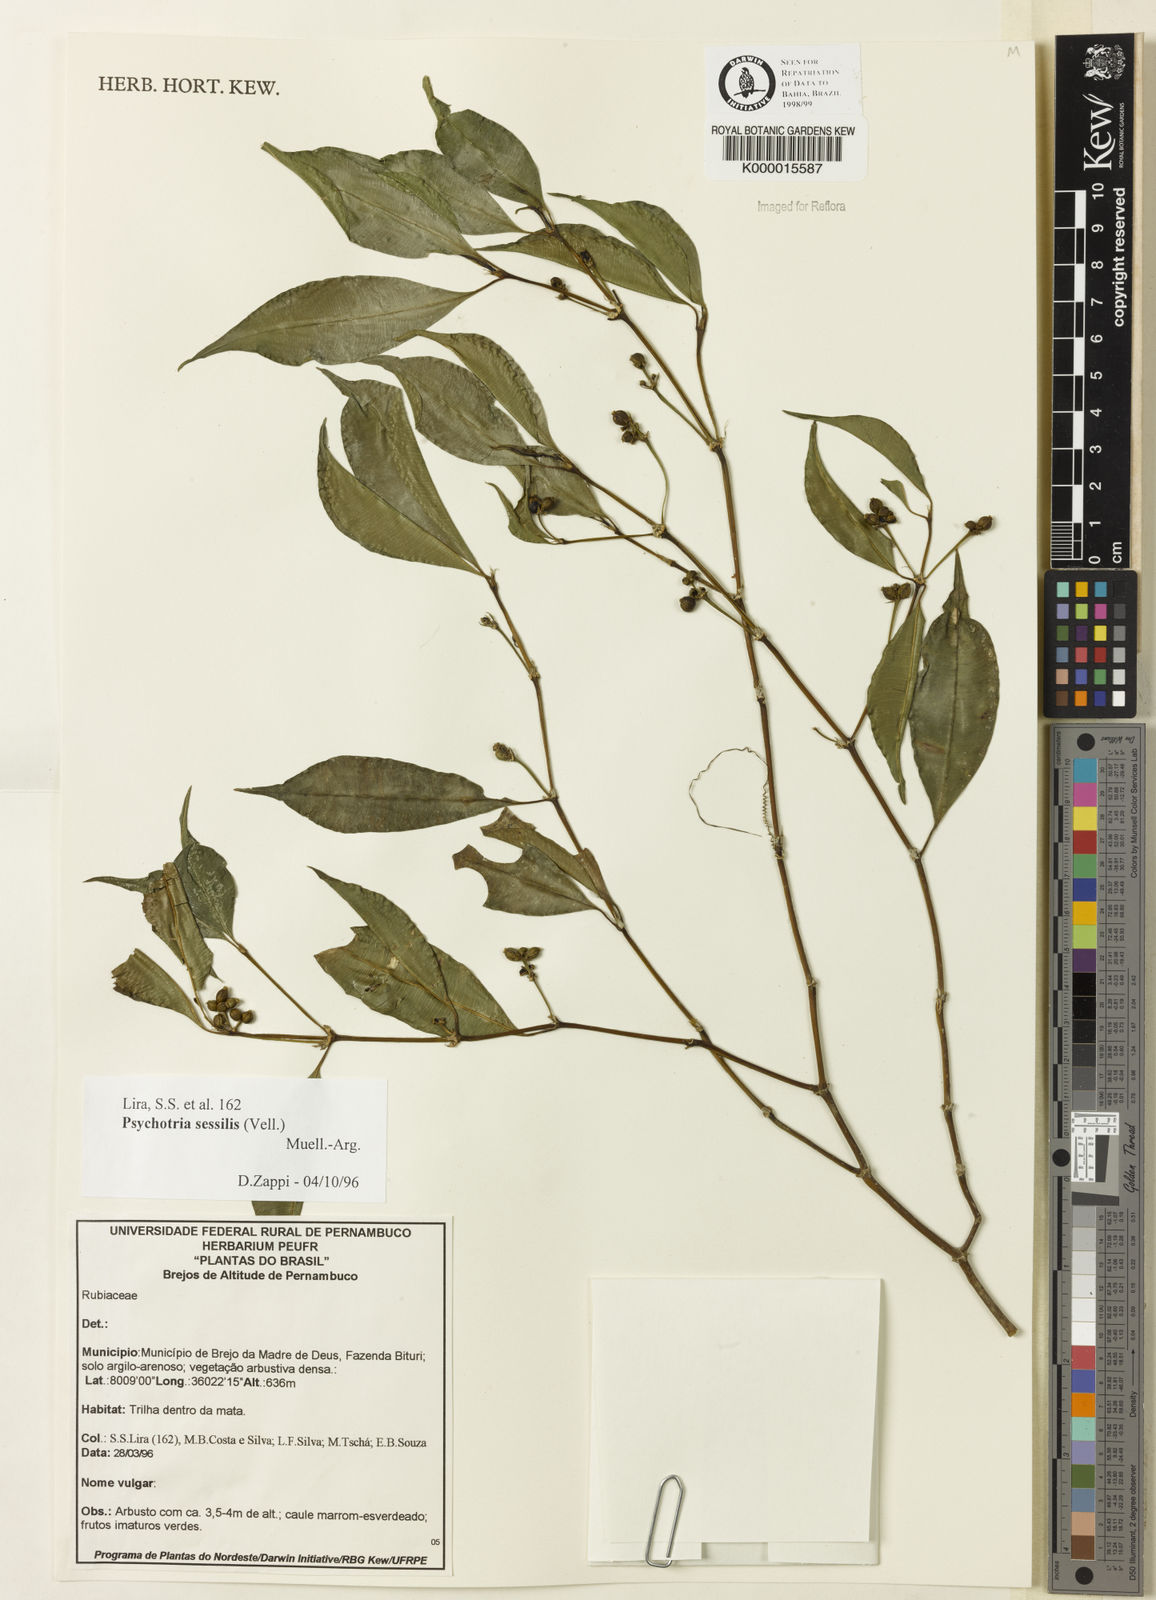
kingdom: Plantae
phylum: Tracheophyta
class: Magnoliopsida
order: Gentianales
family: Rubiaceae
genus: Psychotria
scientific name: Psychotria
